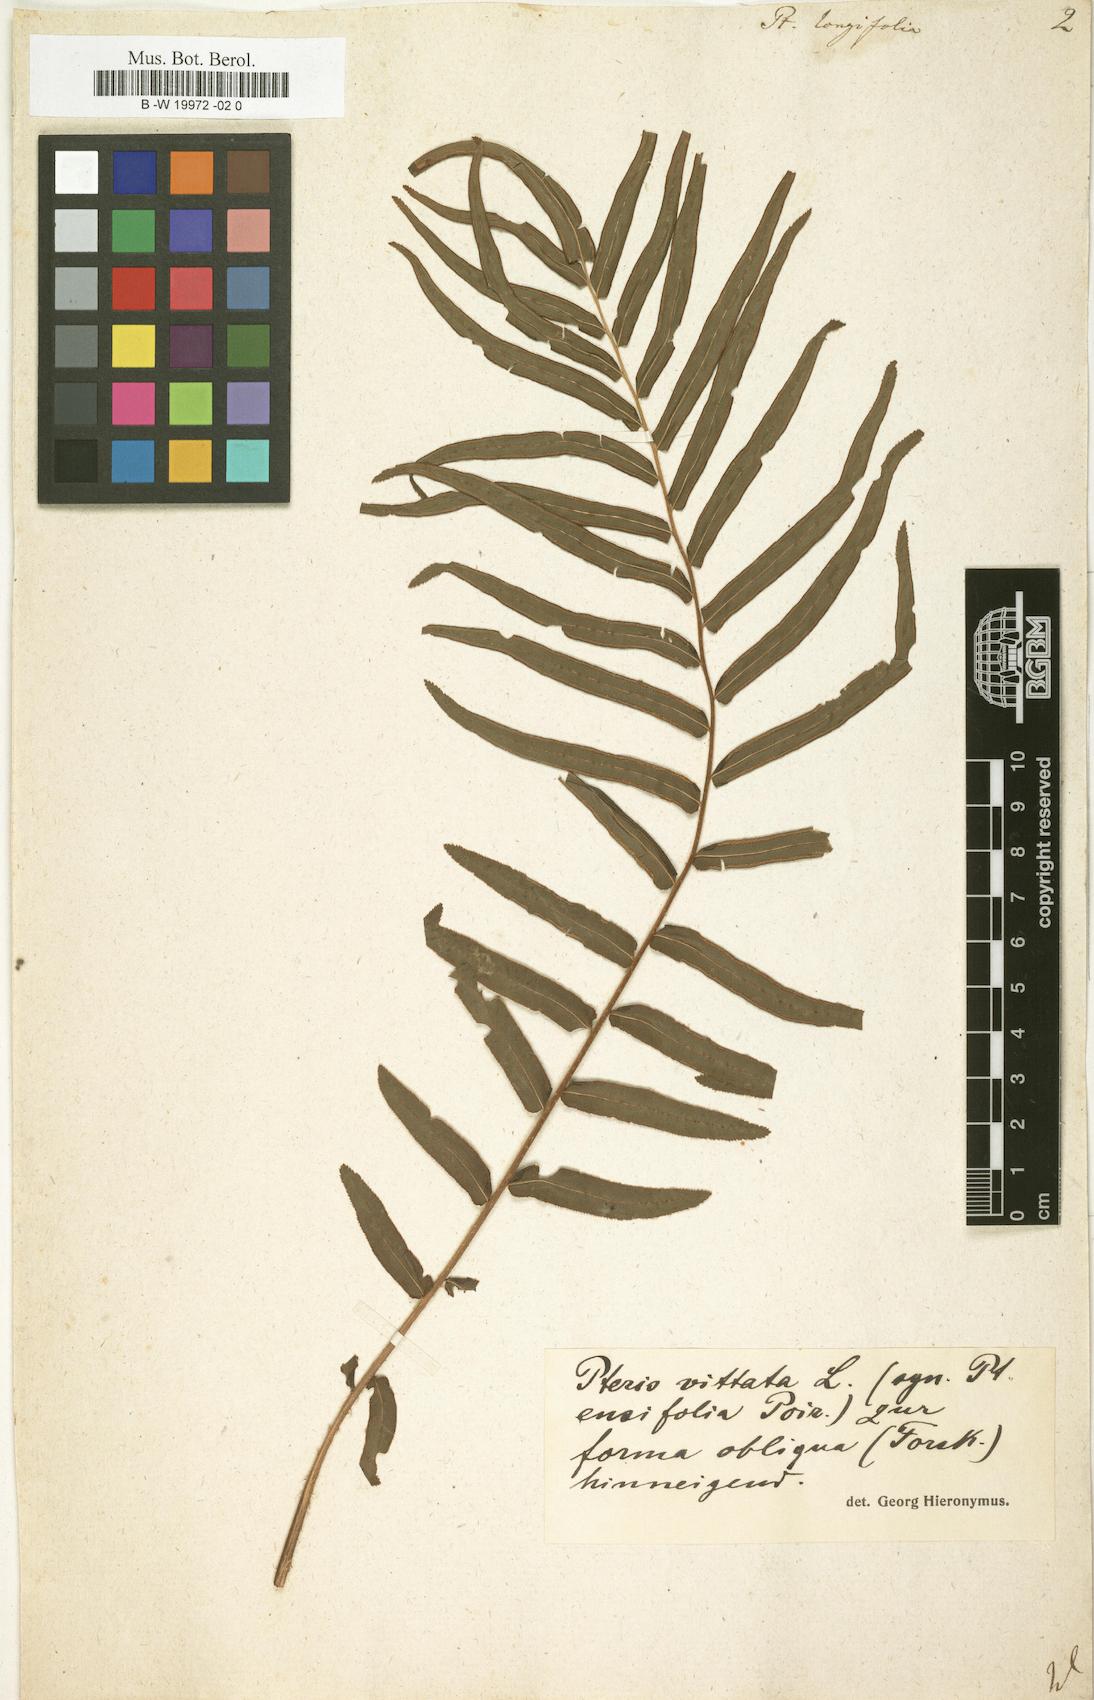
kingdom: Plantae
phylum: Tracheophyta
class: Polypodiopsida
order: Polypodiales
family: Pteridaceae
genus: Pteris
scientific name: Pteris longifolia
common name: Longleaf brake
